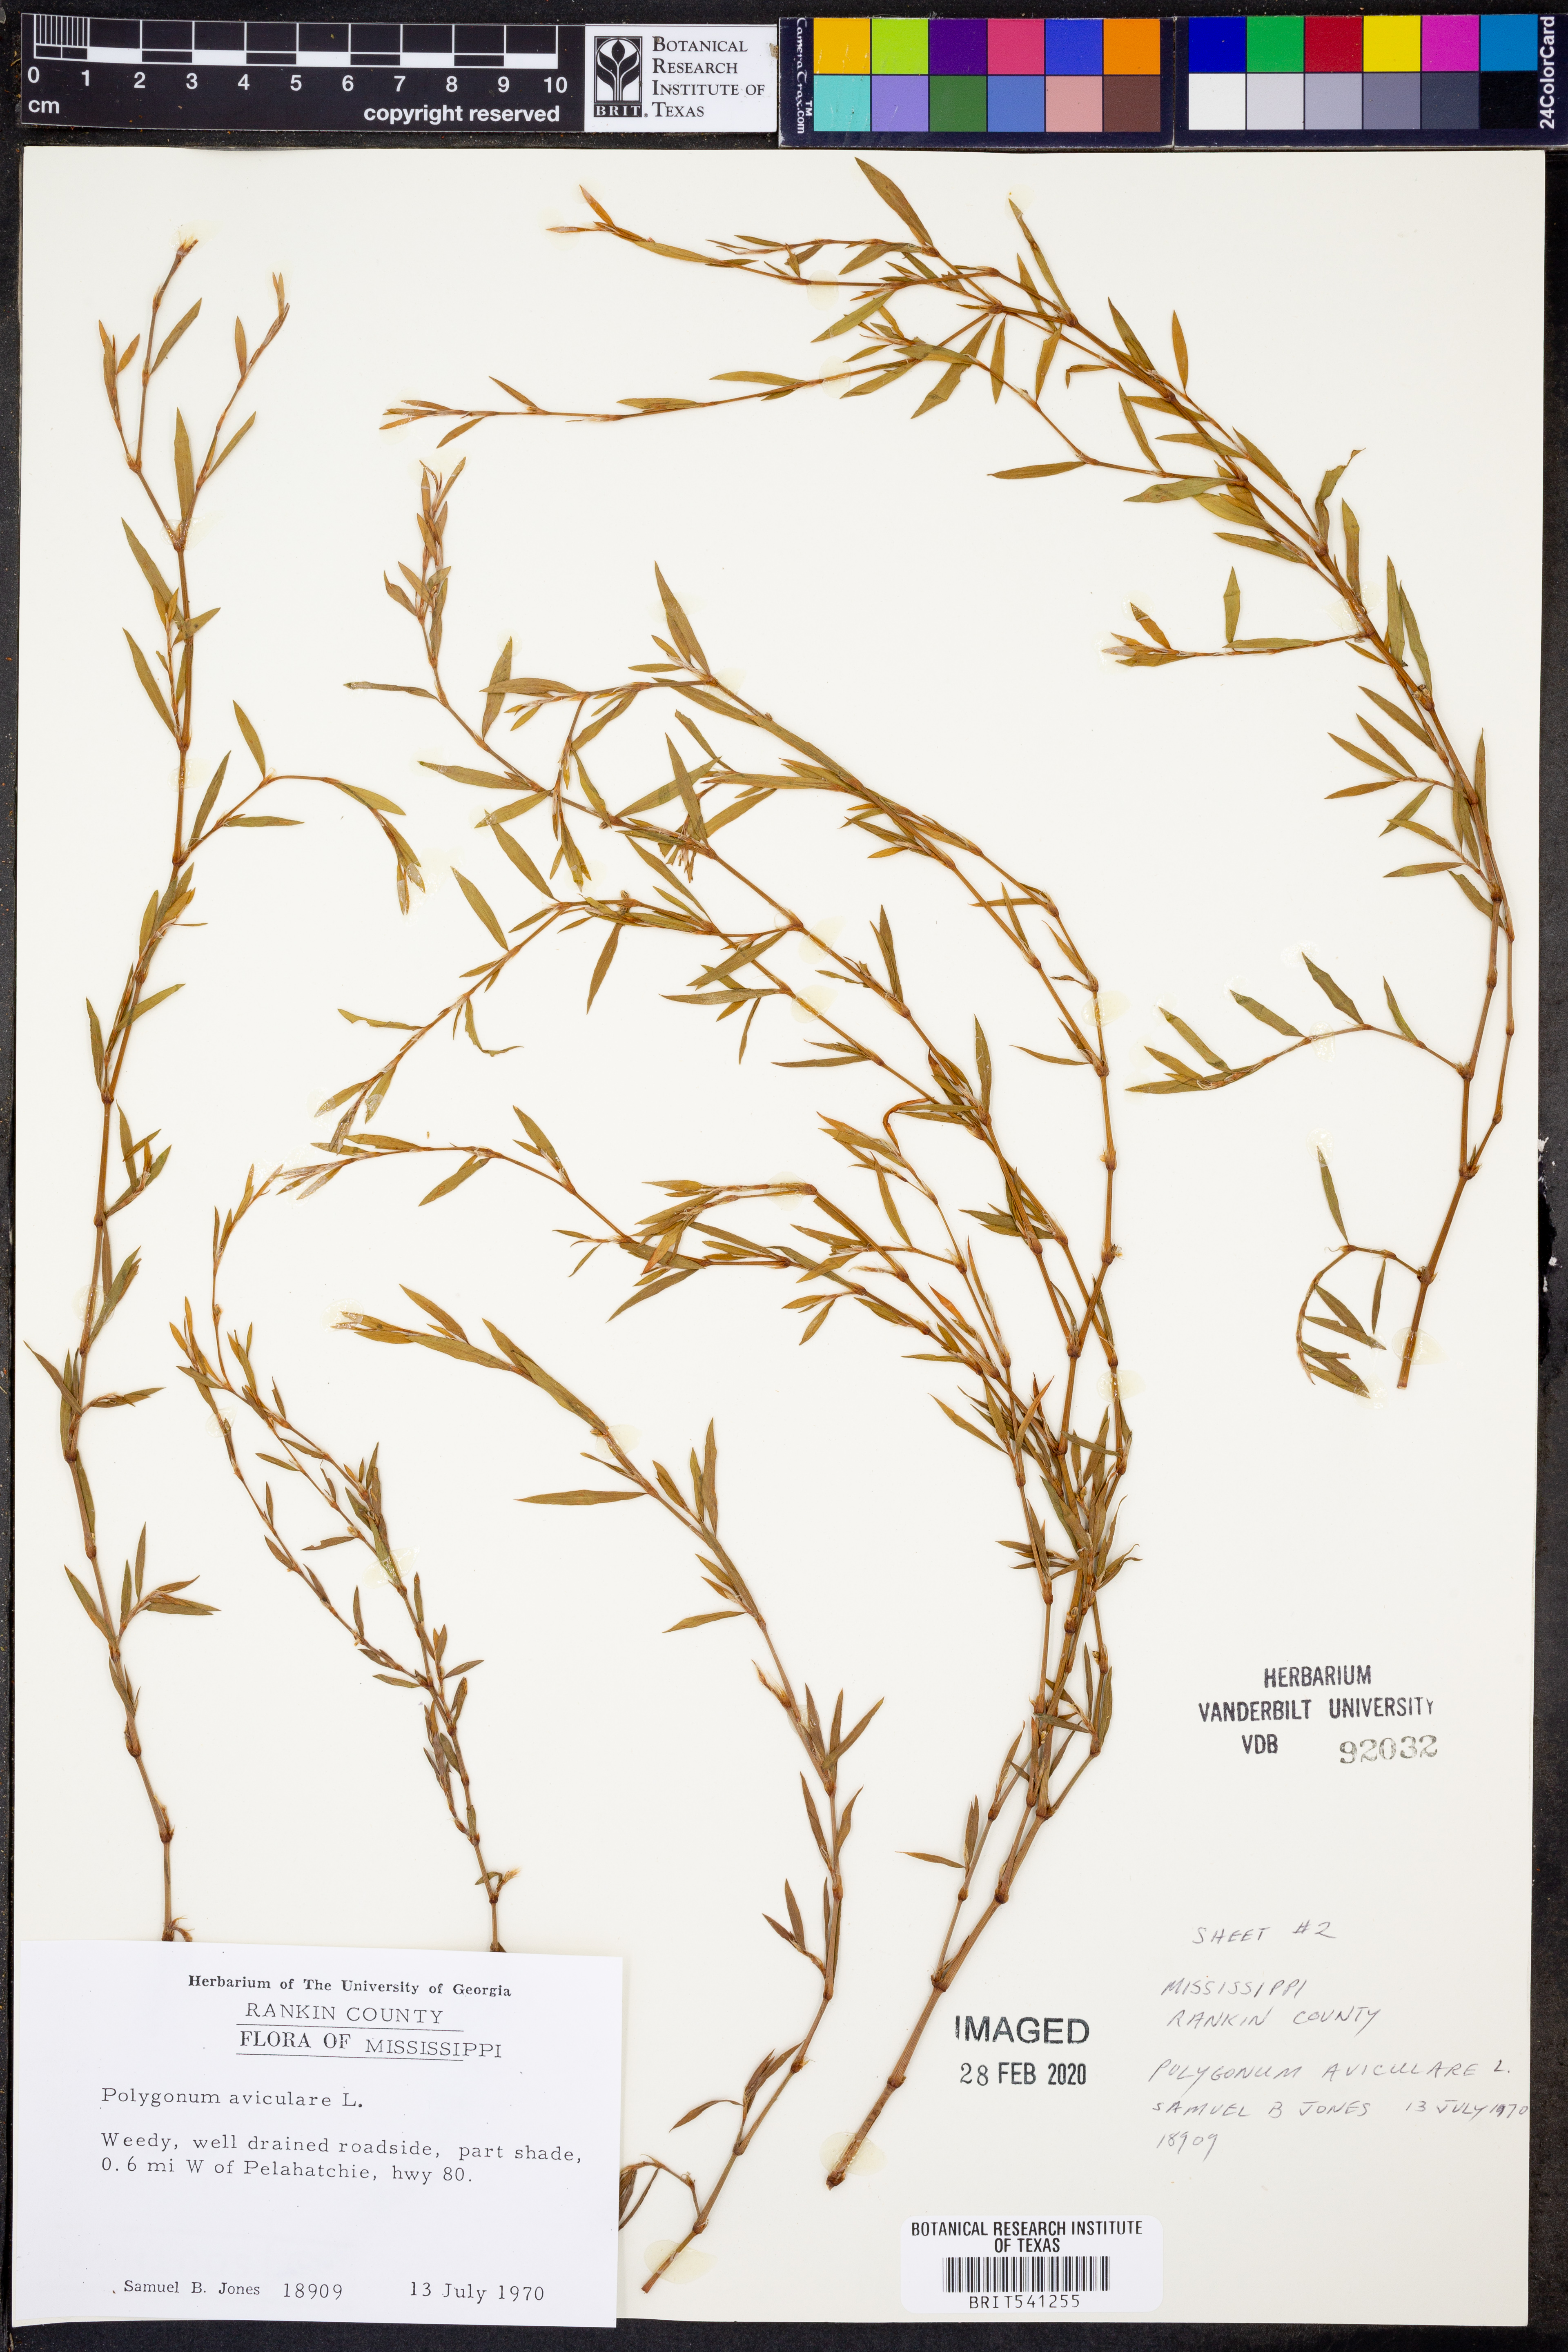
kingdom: Plantae
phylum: Tracheophyta
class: Magnoliopsida
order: Caryophyllales
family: Polygonaceae
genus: Polygonum
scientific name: Polygonum aviculare
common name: Prostrate knotweed
